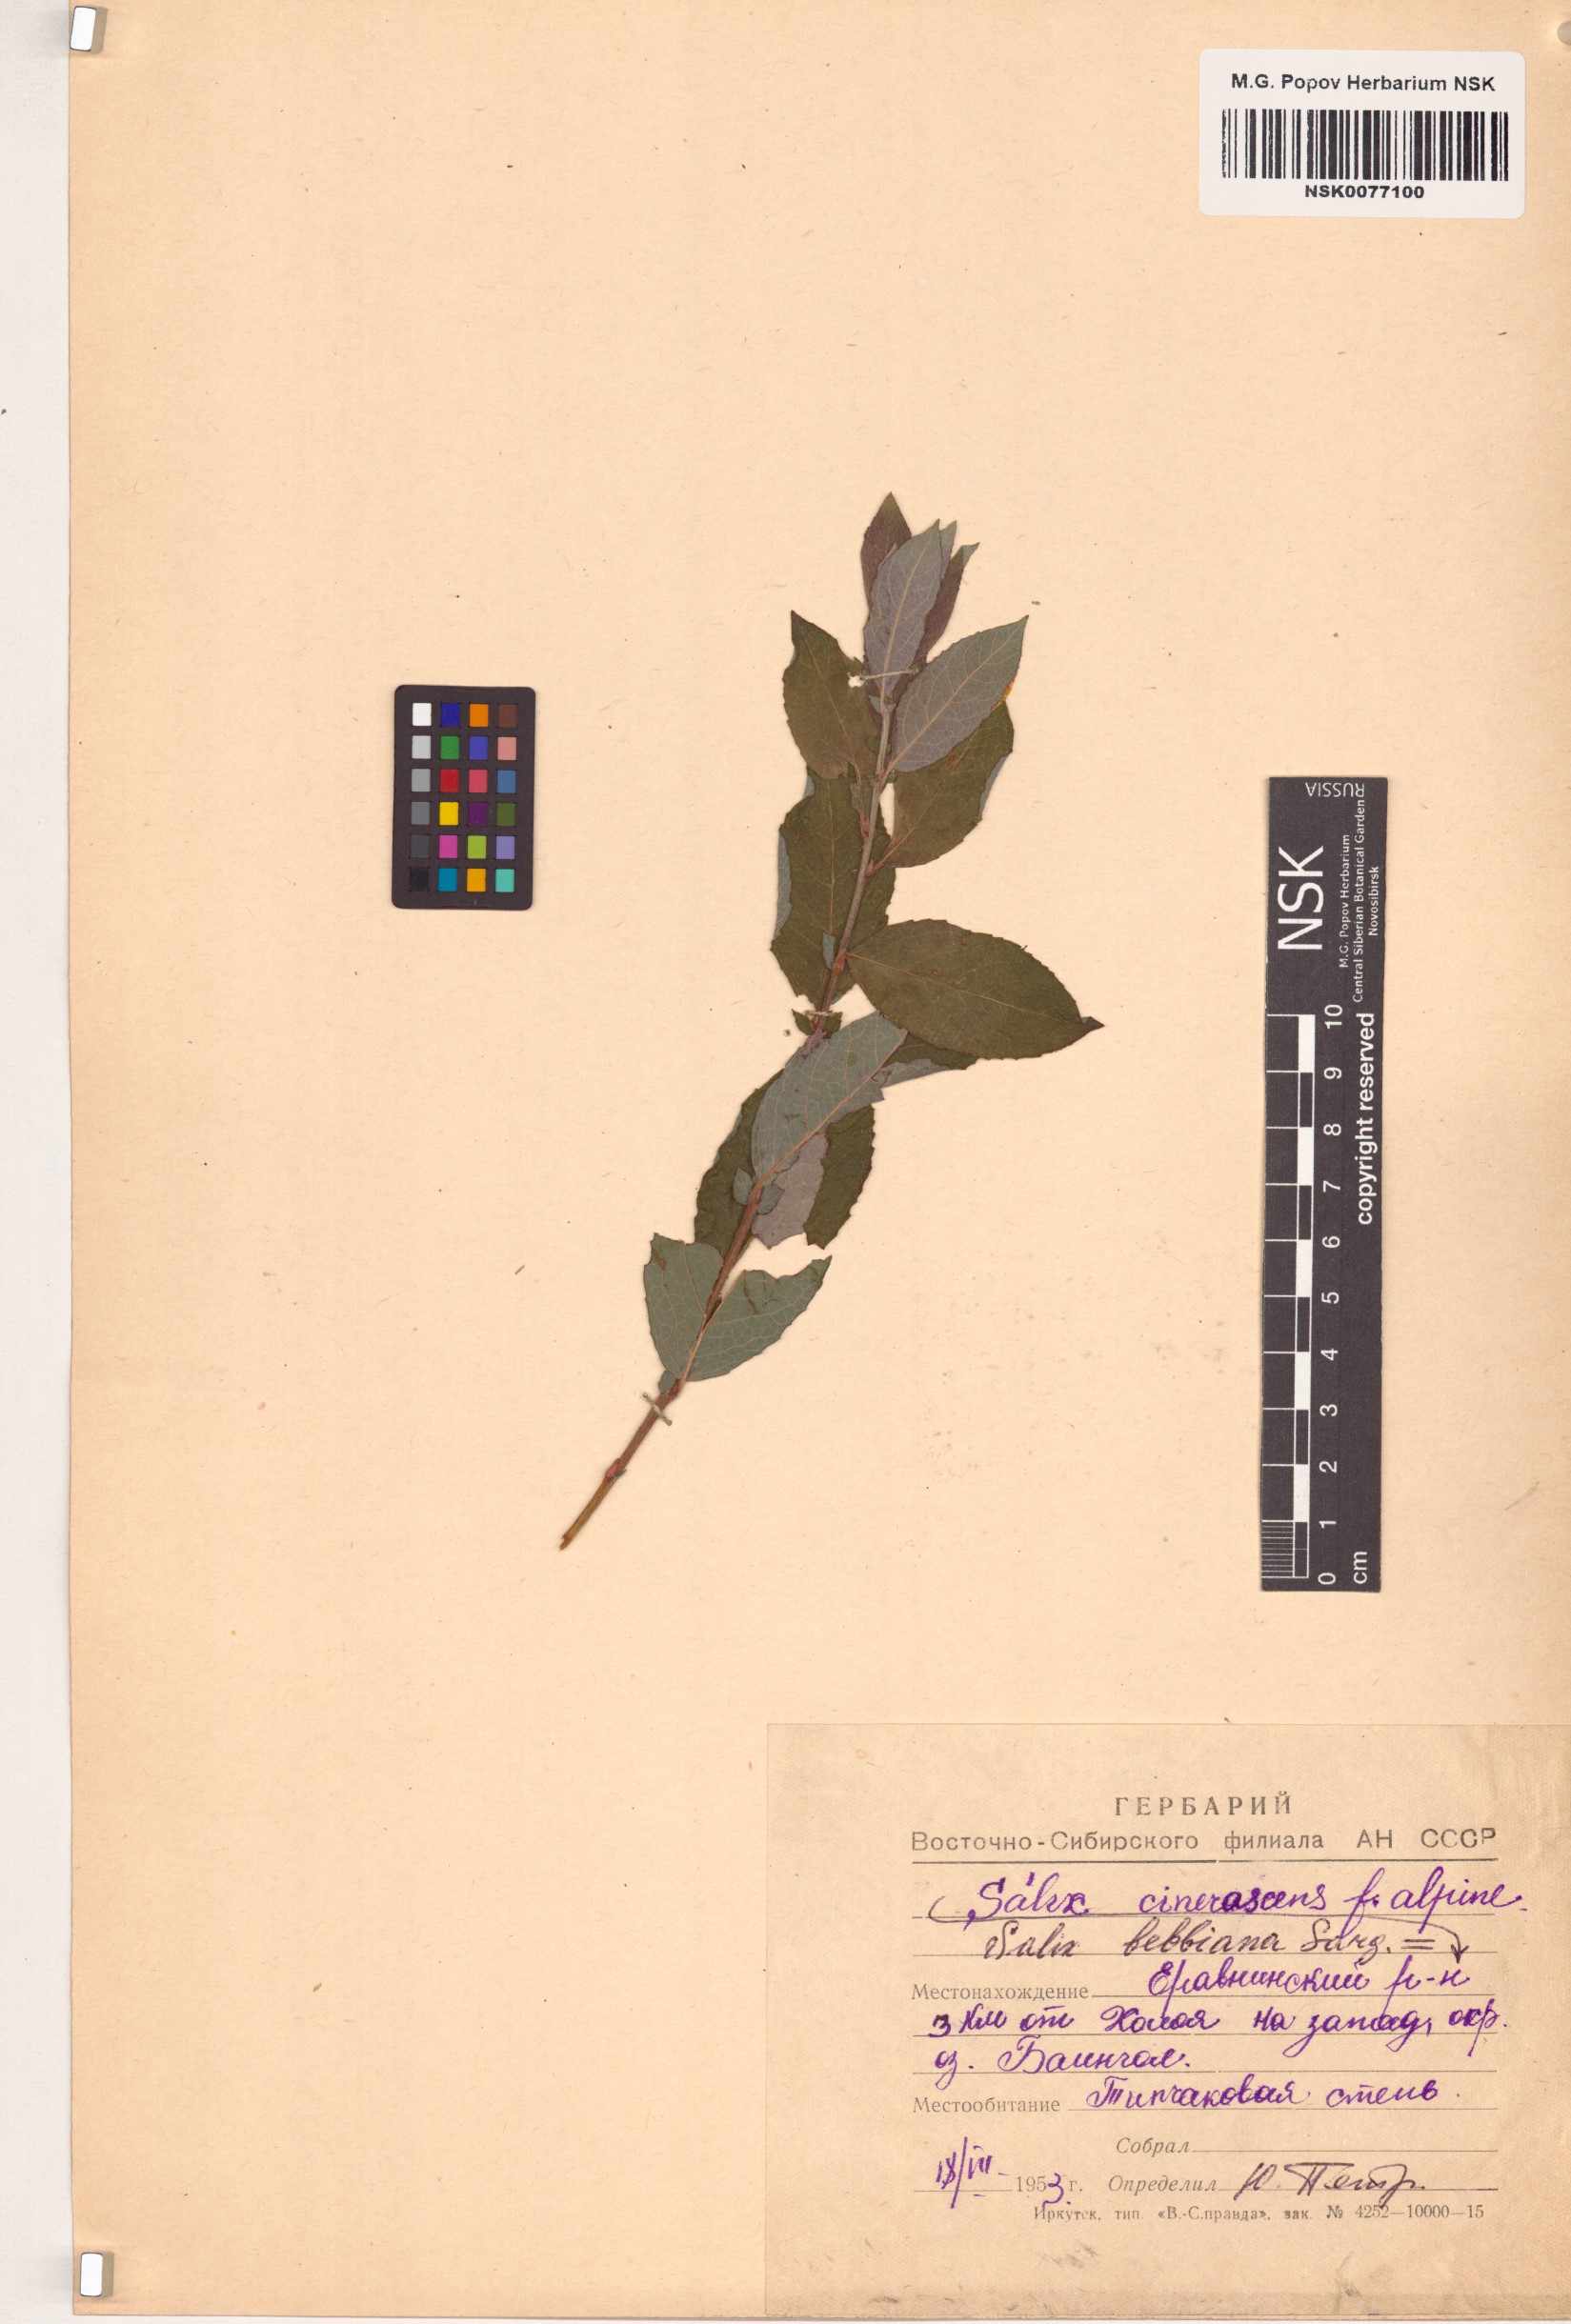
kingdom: Plantae
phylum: Tracheophyta
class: Magnoliopsida
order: Malpighiales
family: Salicaceae
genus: Salix
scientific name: Salix bebbiana
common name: Bebb's willow
